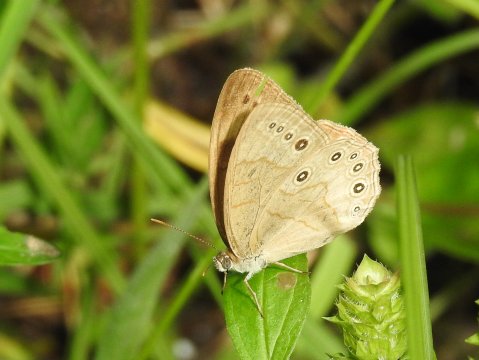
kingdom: Animalia
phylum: Arthropoda
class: Insecta
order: Lepidoptera
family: Nymphalidae
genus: Lethe
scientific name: Lethe eurydice
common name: Appalachian Eyed Brown
